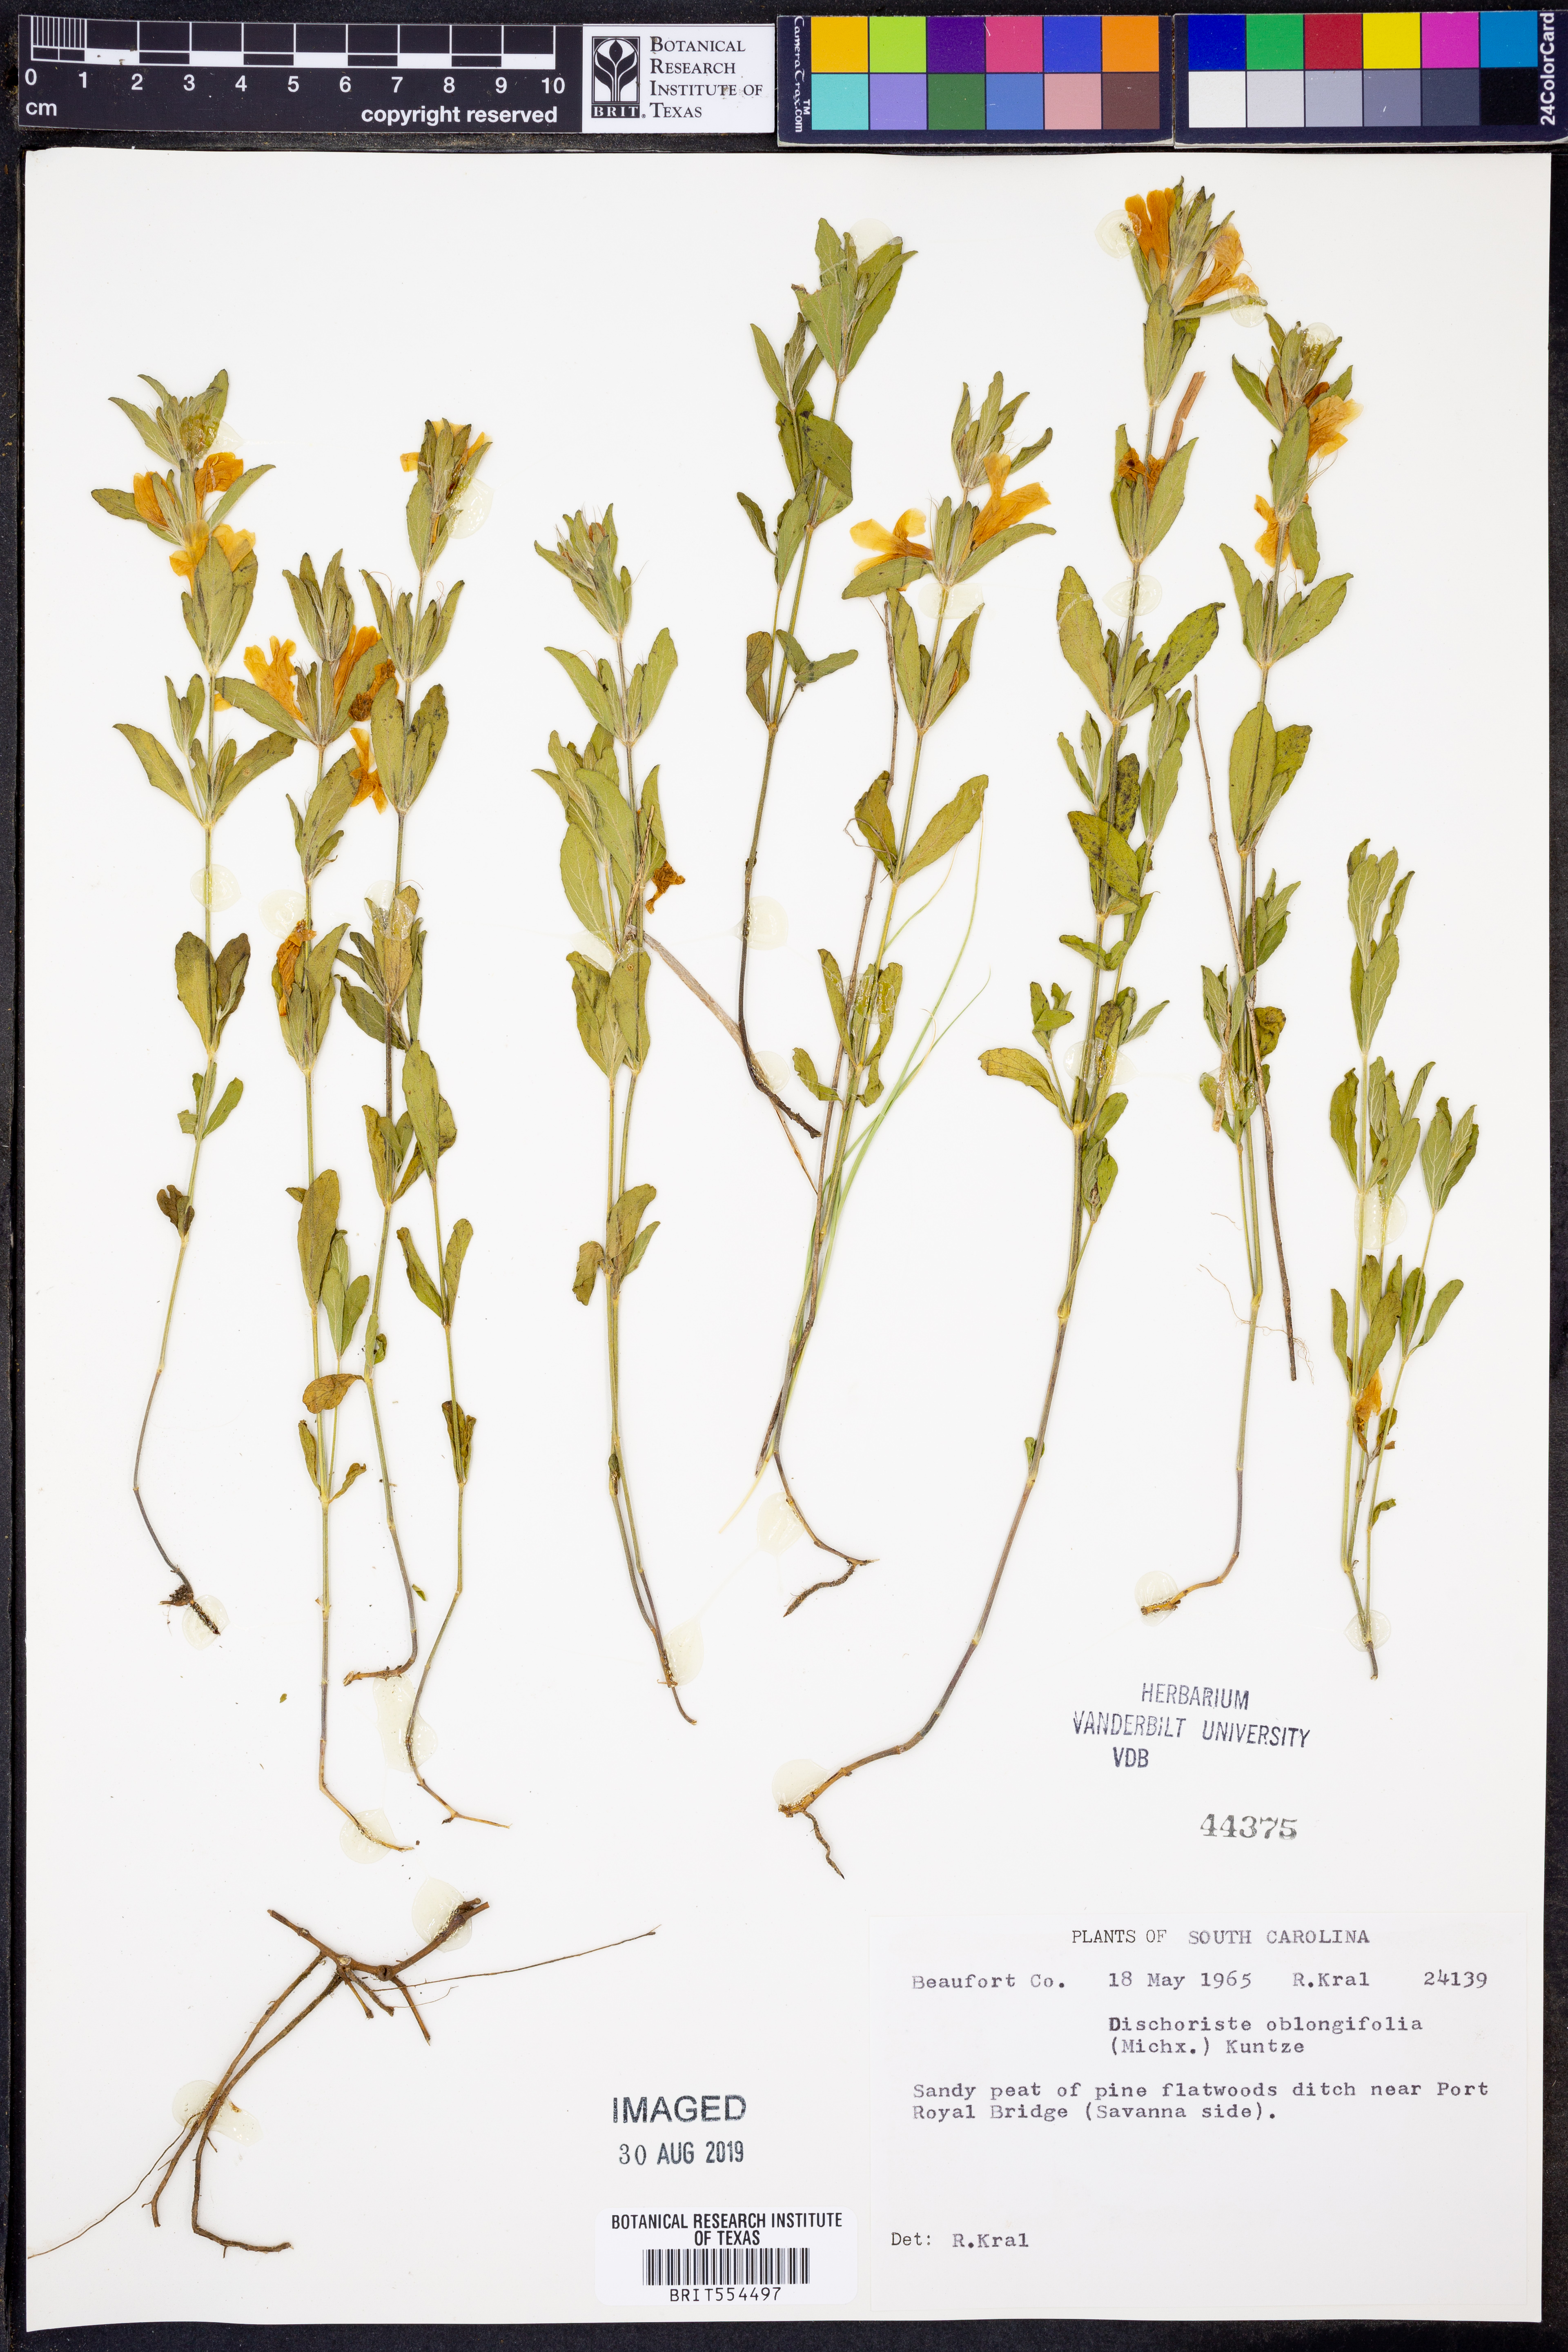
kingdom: Plantae
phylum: Tracheophyta
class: Magnoliopsida
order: Lamiales
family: Acanthaceae
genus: Dyschoriste
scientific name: Dyschoriste oblongifolia
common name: Blue twinflower
